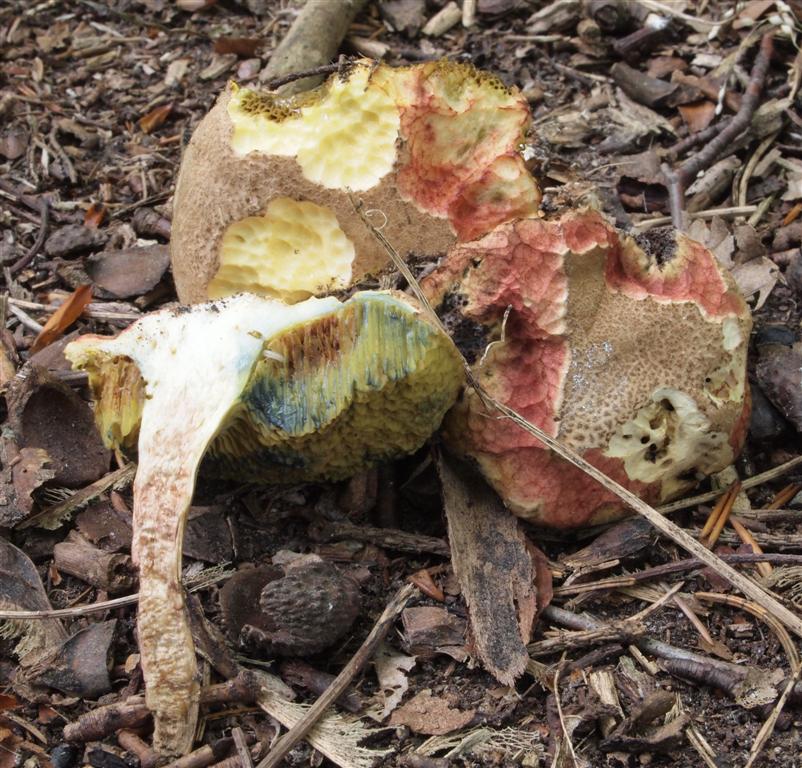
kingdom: Fungi
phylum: Basidiomycota
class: Agaricomycetes
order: Boletales
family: Boletaceae
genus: Xerocomellus
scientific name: Xerocomellus chrysenteron
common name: rødsprukken rørhat
